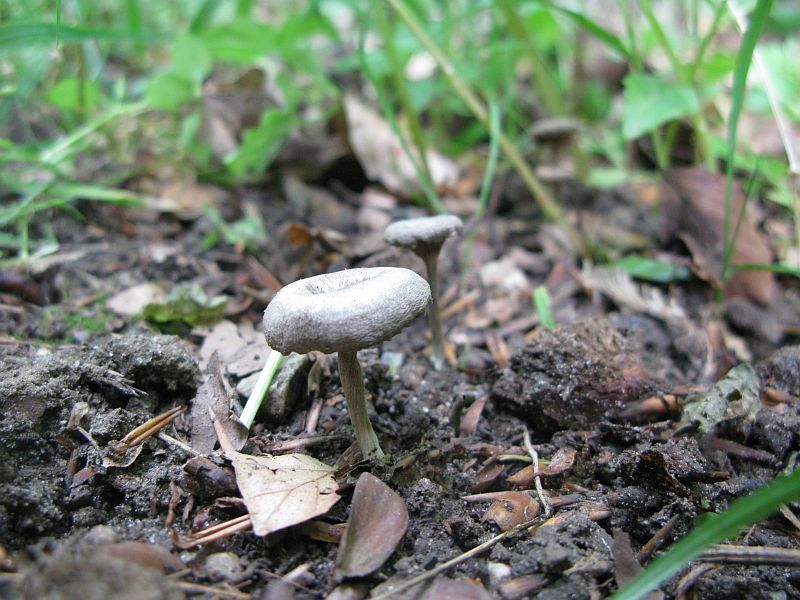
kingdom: Fungi
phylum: Basidiomycota
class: Agaricomycetes
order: Agaricales
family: Entolomataceae
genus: Entoloma
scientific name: Entoloma undatum
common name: bæltet rødblad
